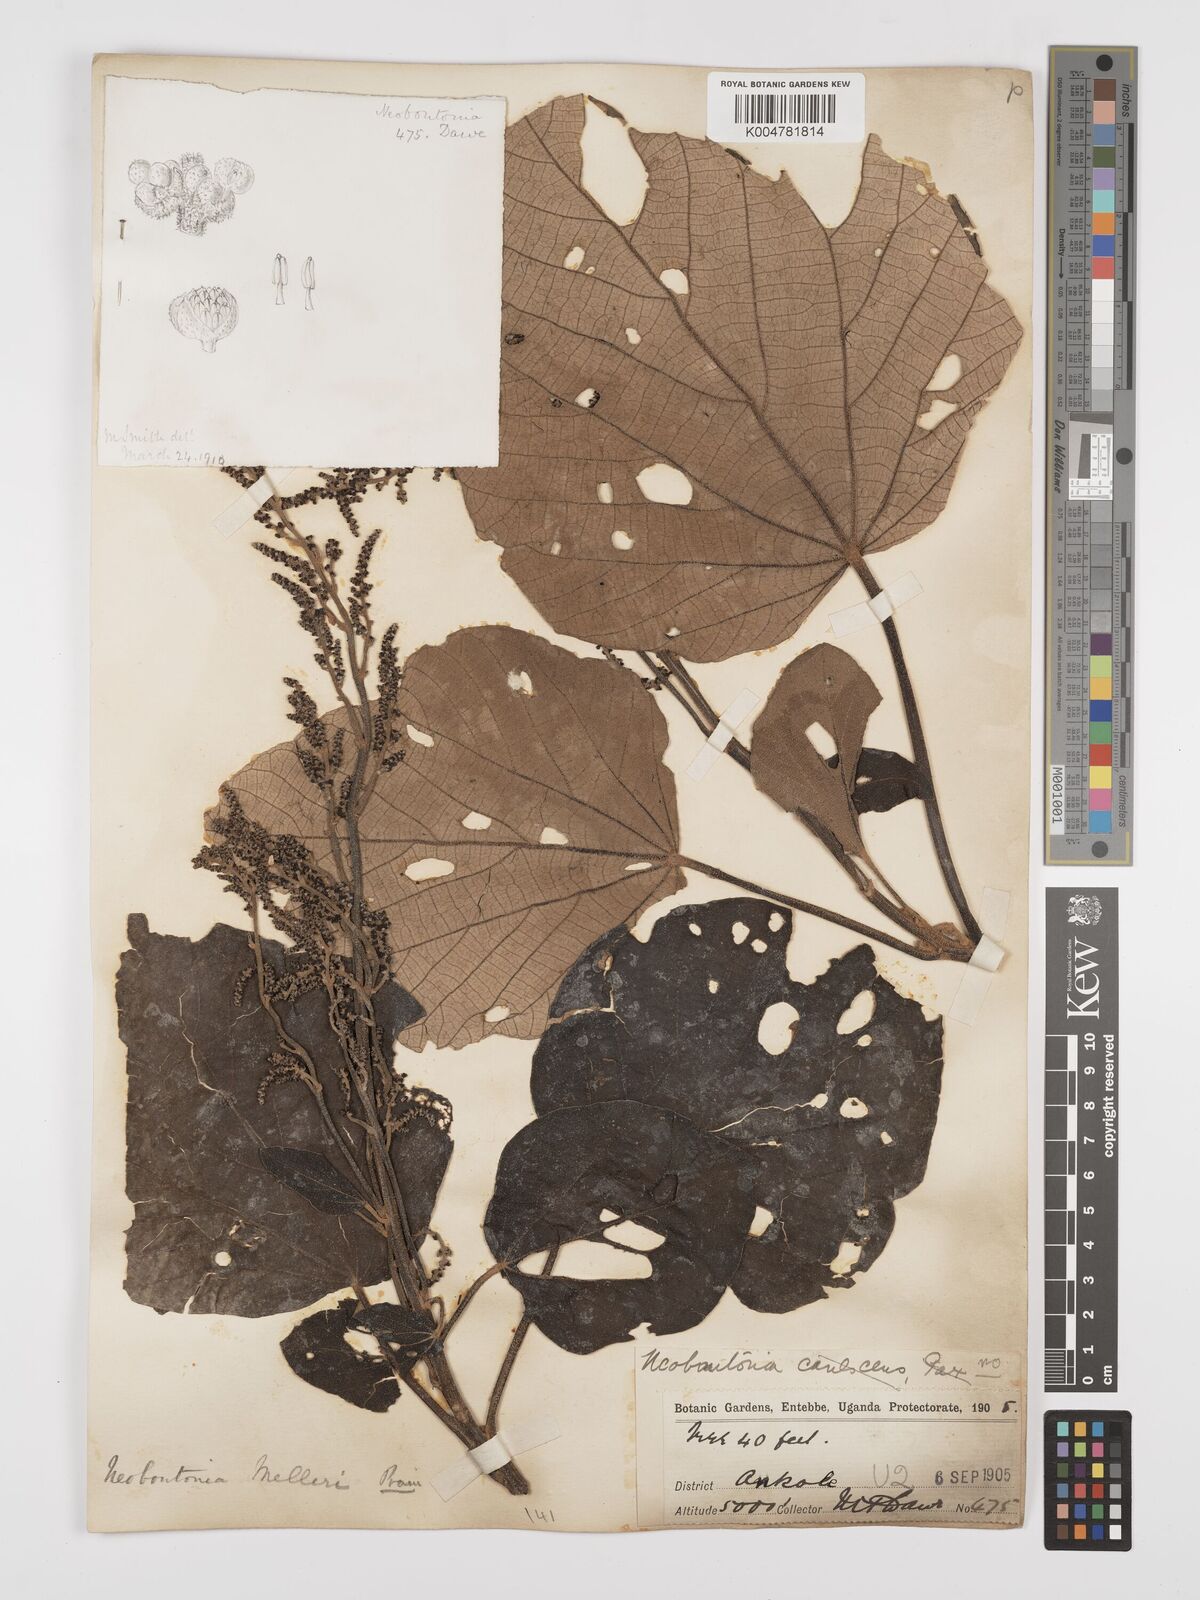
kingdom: Plantae
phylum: Tracheophyta
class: Magnoliopsida
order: Malpighiales
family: Euphorbiaceae
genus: Neoboutonia
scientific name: Neoboutonia melleri
